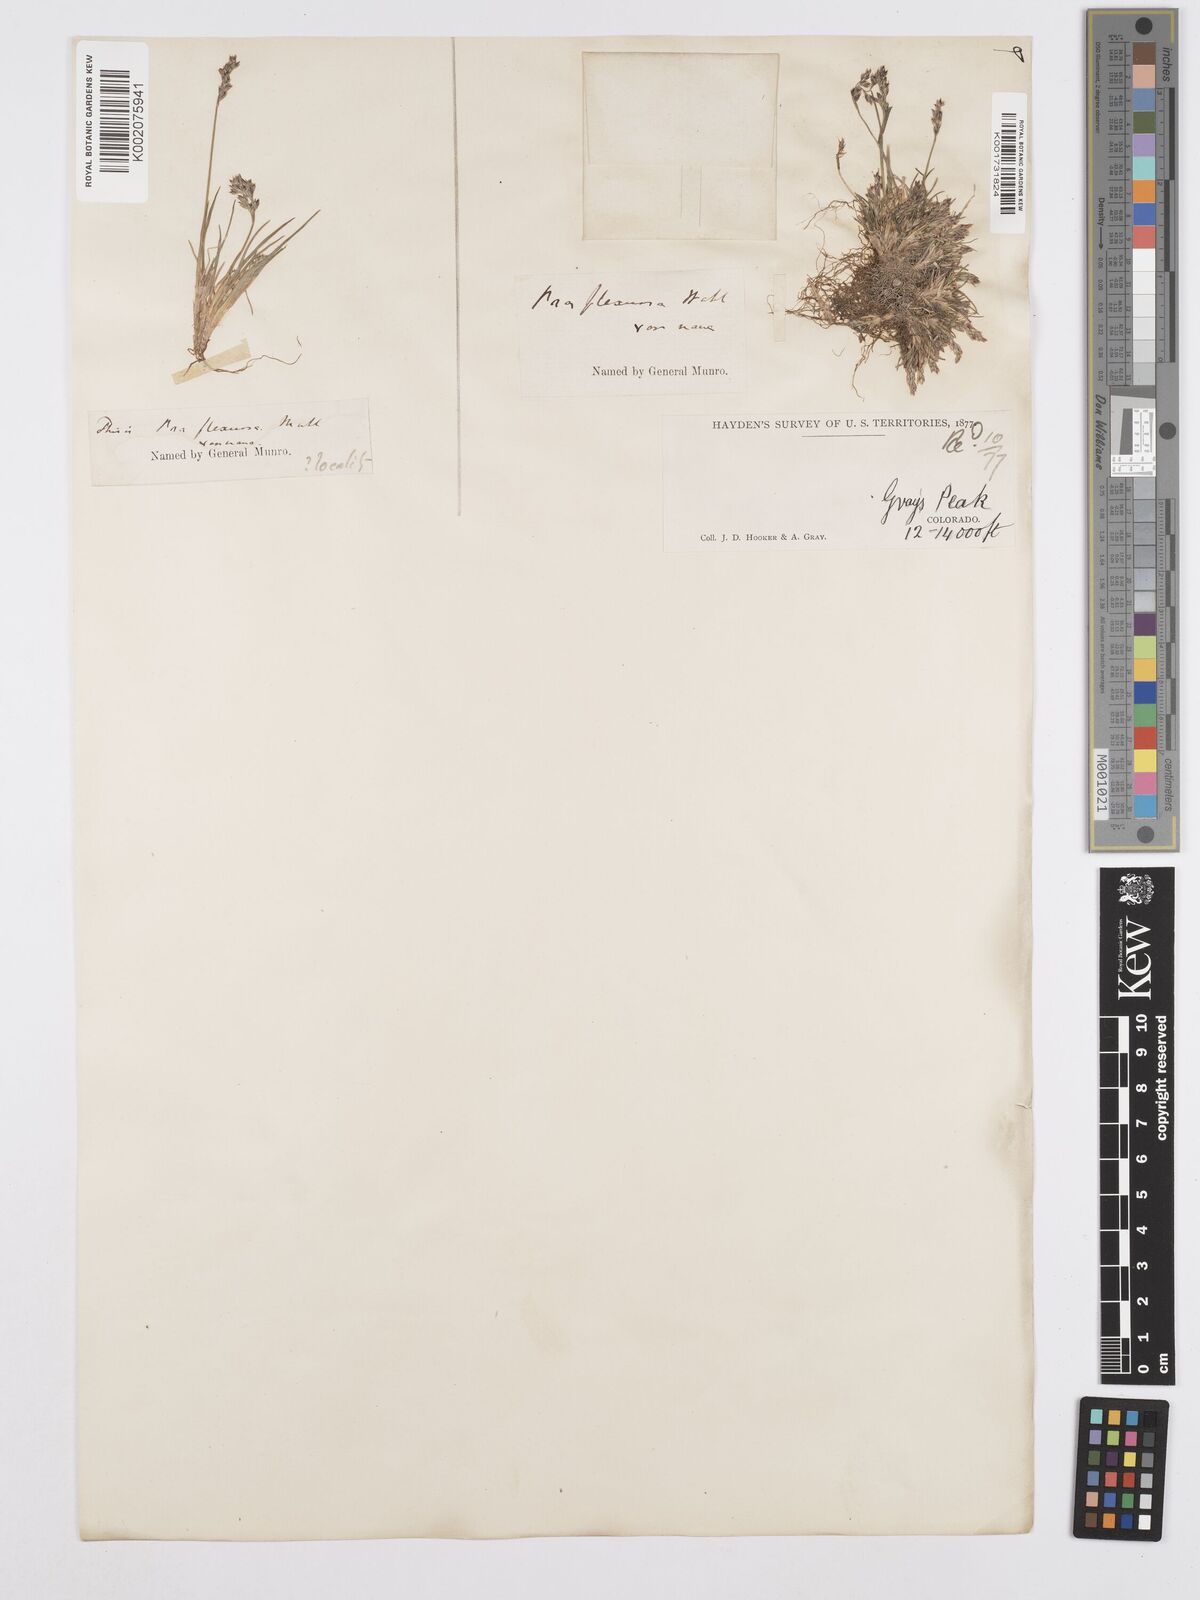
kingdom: Plantae
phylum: Tracheophyta
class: Liliopsida
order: Poales
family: Poaceae
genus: Poa
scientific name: Poa autumnalis
